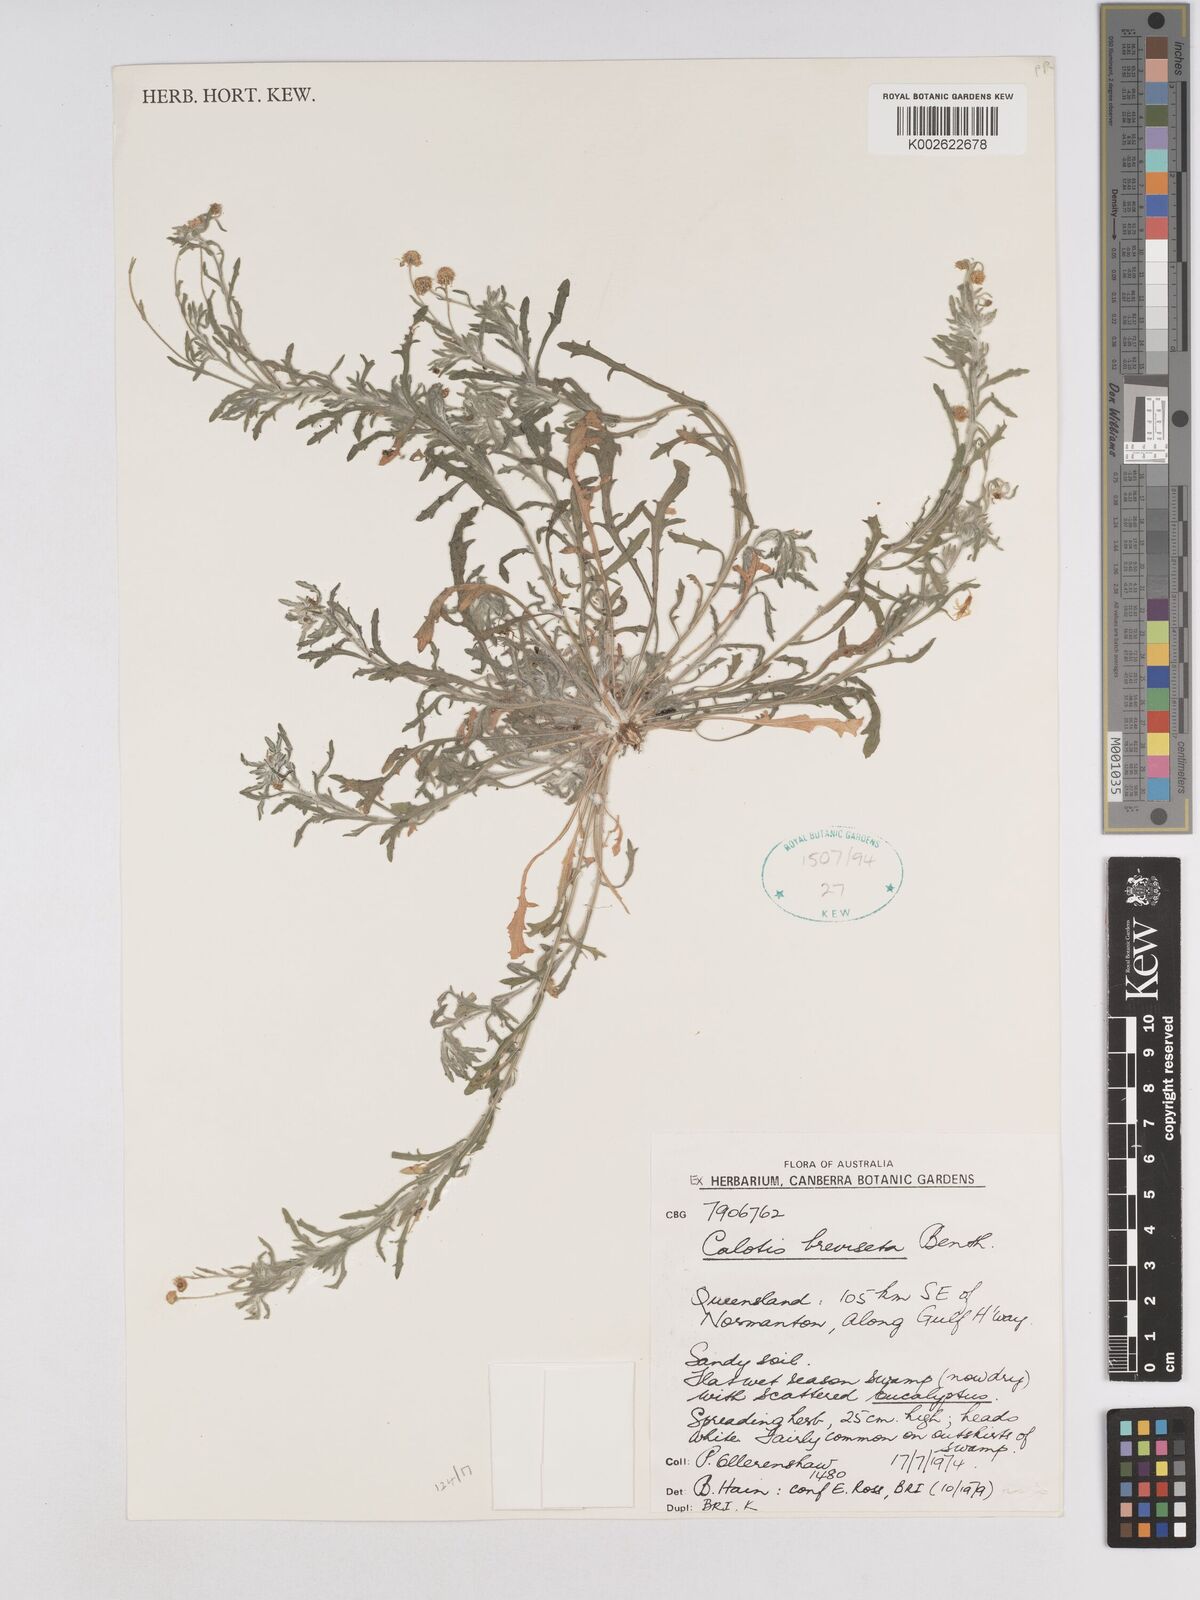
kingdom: Plantae
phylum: Tracheophyta
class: Magnoliopsida
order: Asterales
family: Asteraceae
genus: Calotis
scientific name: Calotis breviseta
